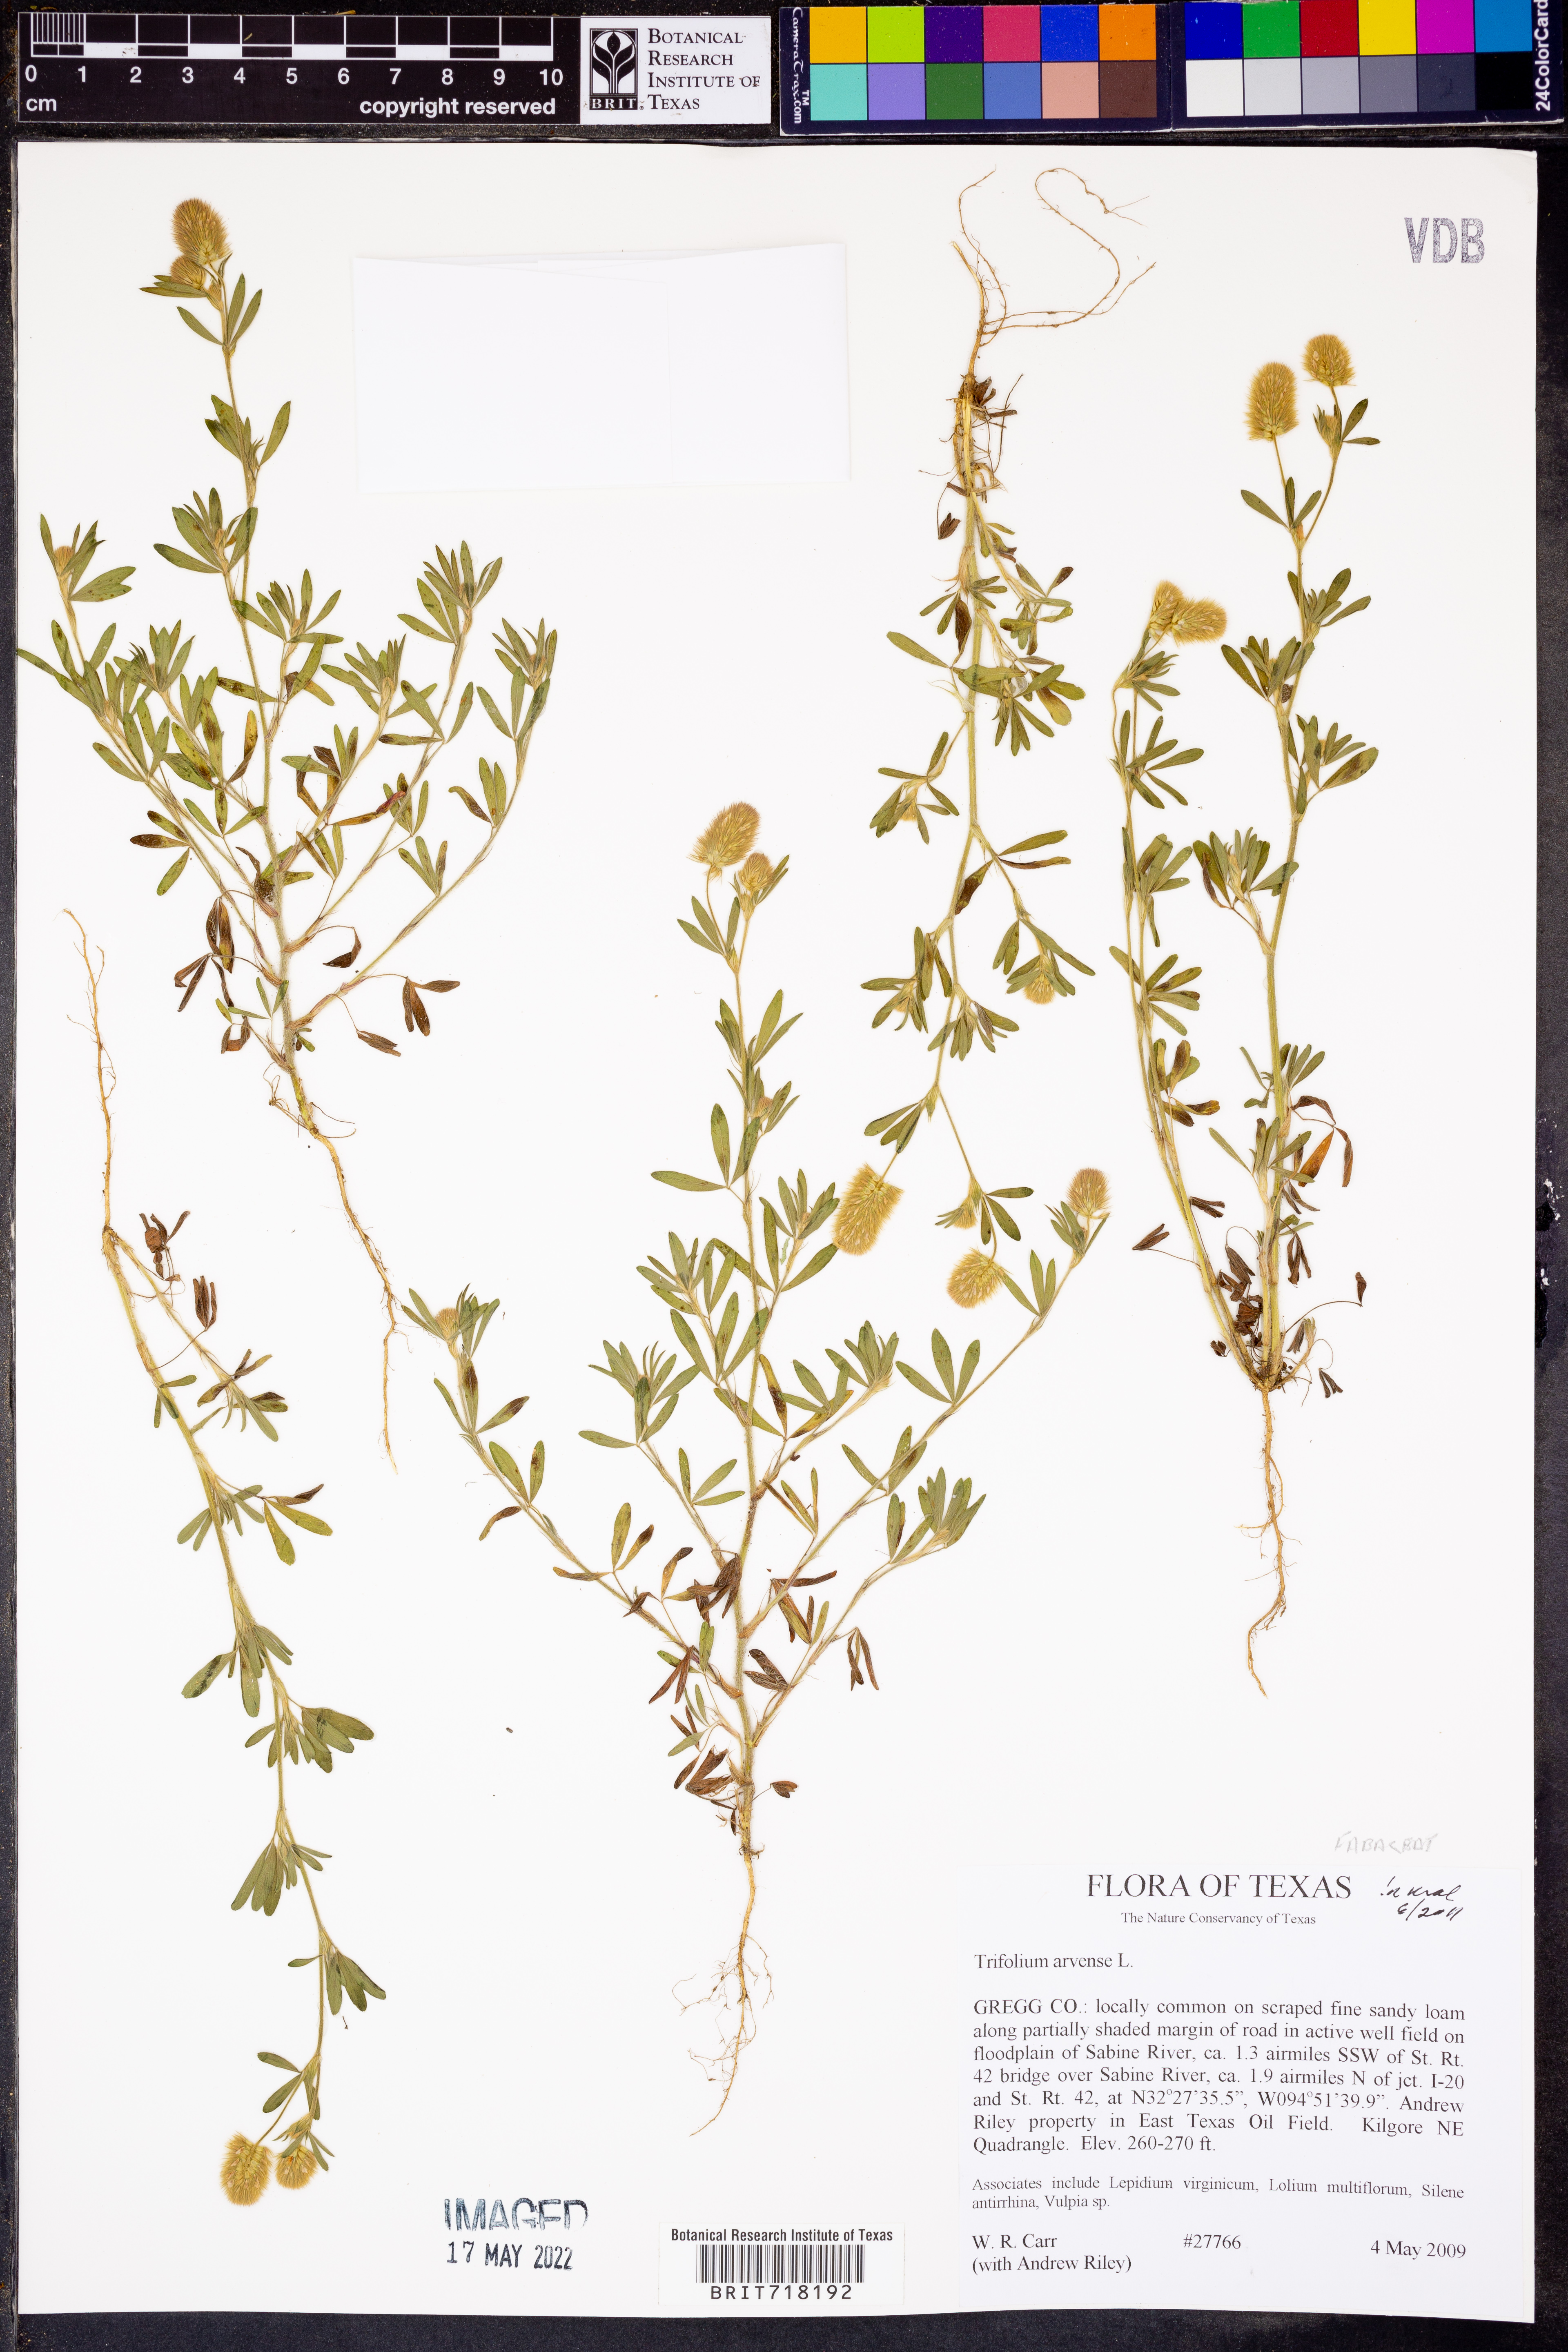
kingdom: Plantae
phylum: Tracheophyta
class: Magnoliopsida
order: Fabales
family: Fabaceae
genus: Trifolium
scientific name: Trifolium arvense
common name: Hare's-foot clover
